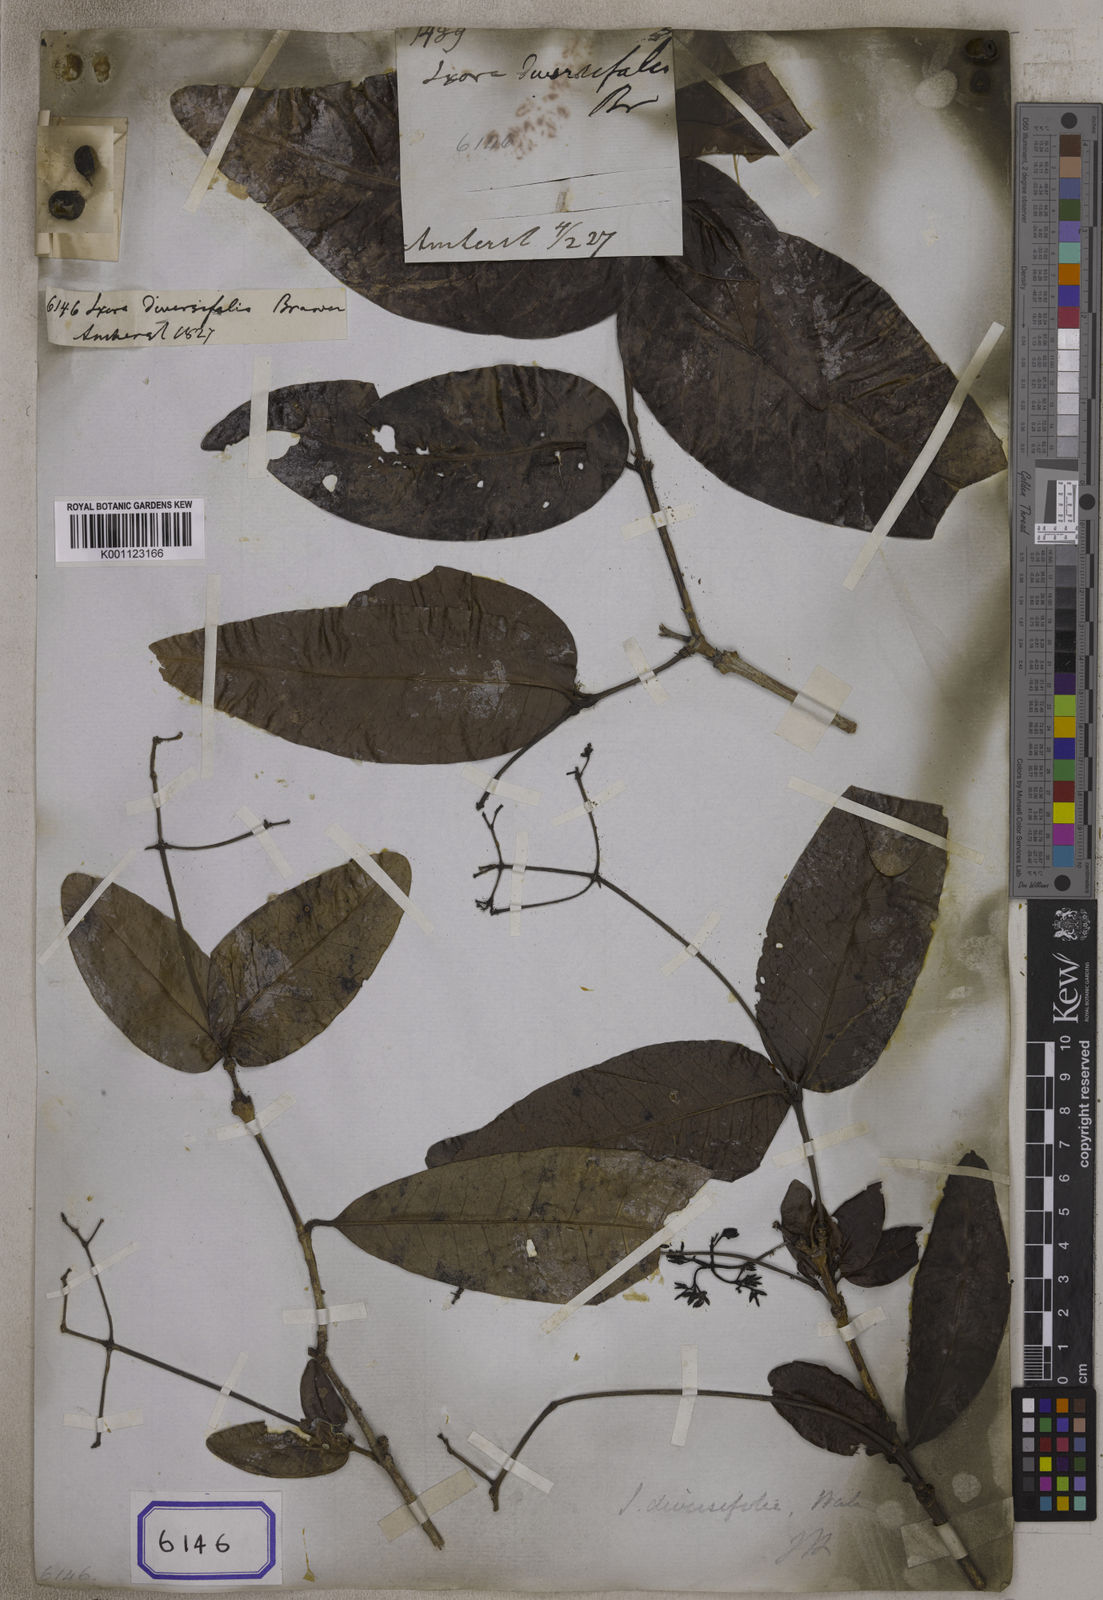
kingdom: Plantae
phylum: Tracheophyta
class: Magnoliopsida
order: Gentianales
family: Rubiaceae
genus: Ixora
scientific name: Ixora
